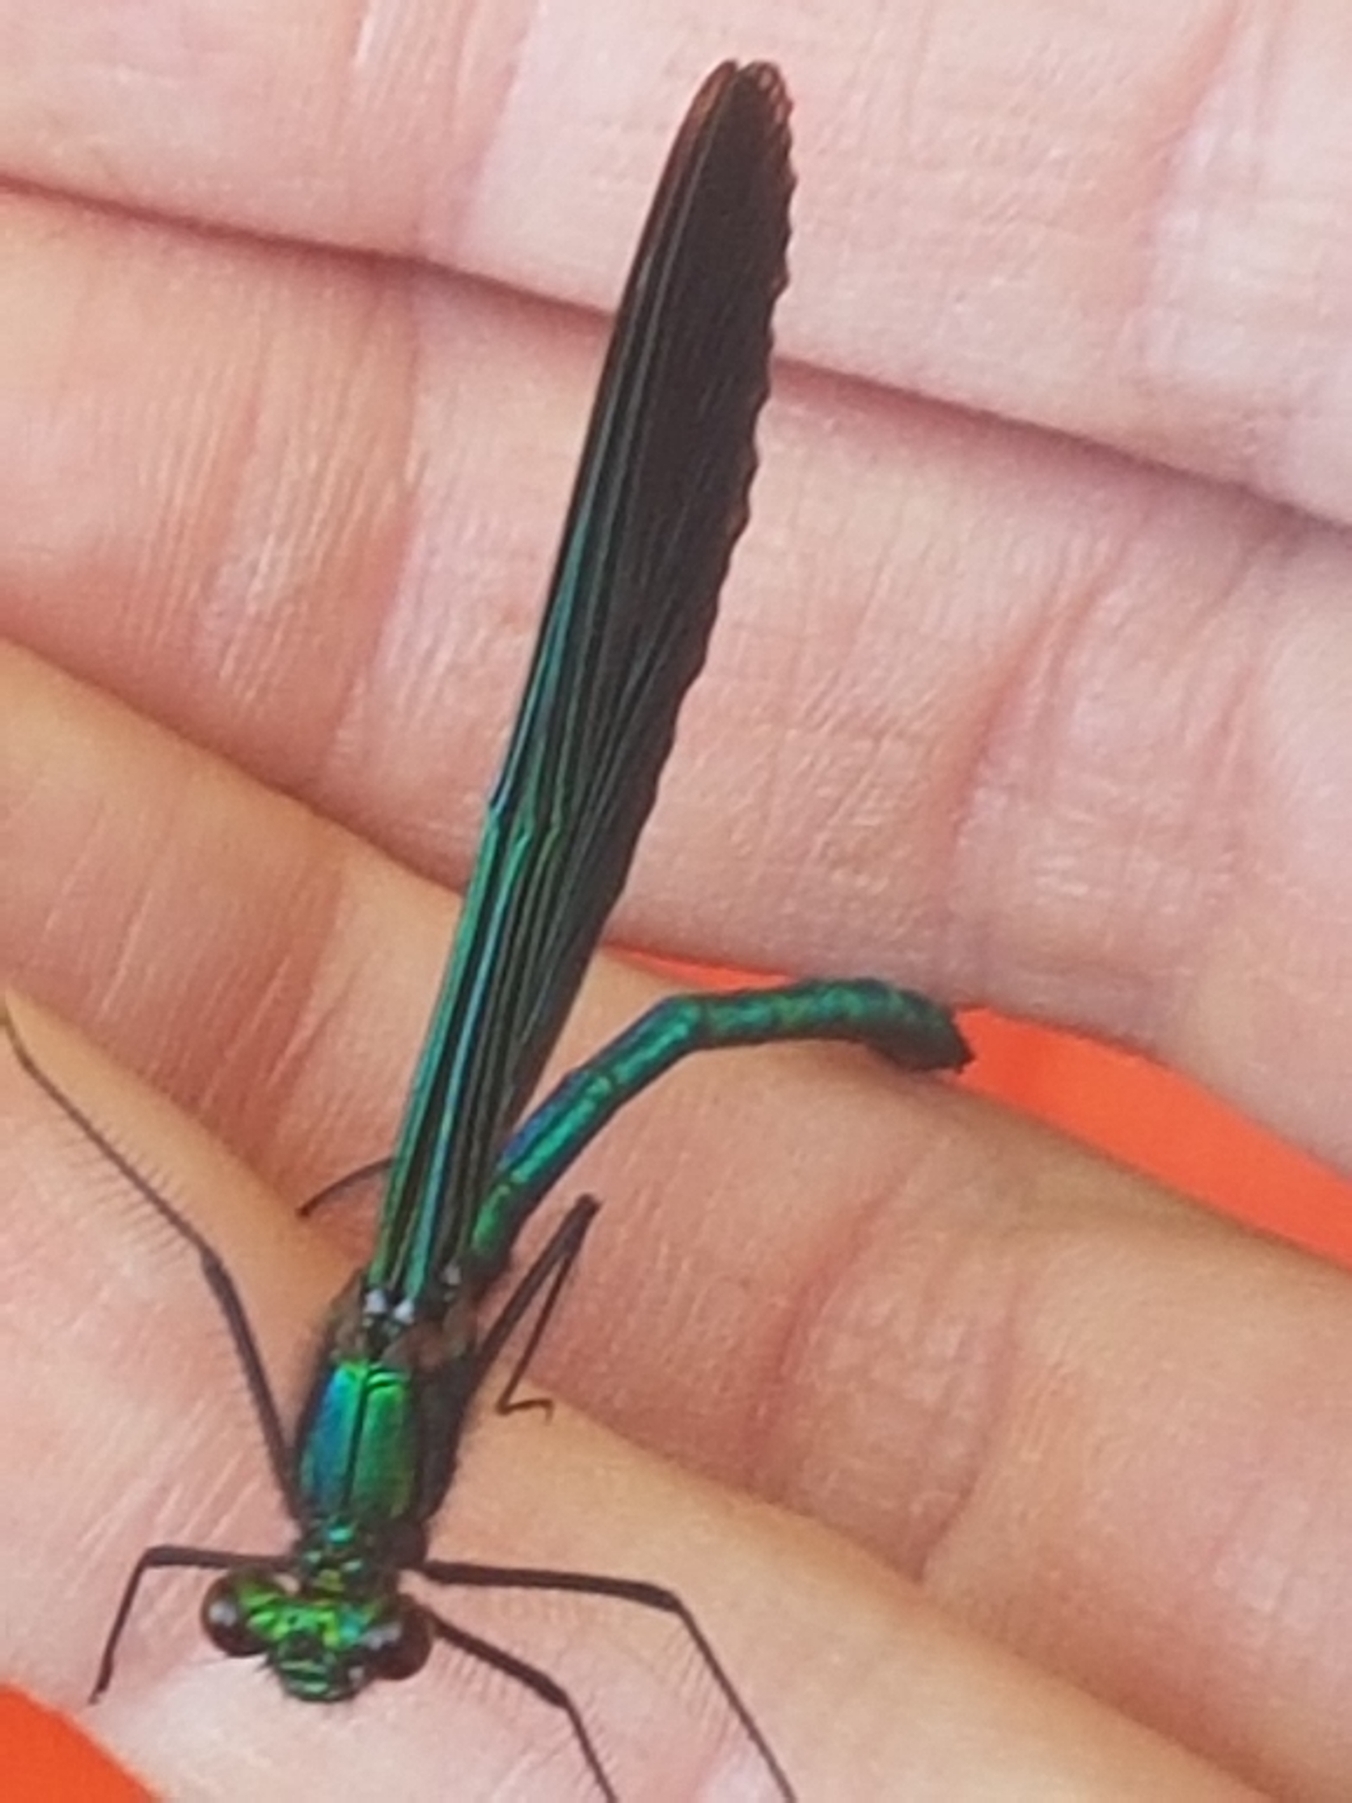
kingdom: Animalia
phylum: Arthropoda
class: Insecta
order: Odonata
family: Calopterygidae
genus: Calopteryx
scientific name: Calopteryx virgo
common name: Blåvinget pragtvandnymfe
